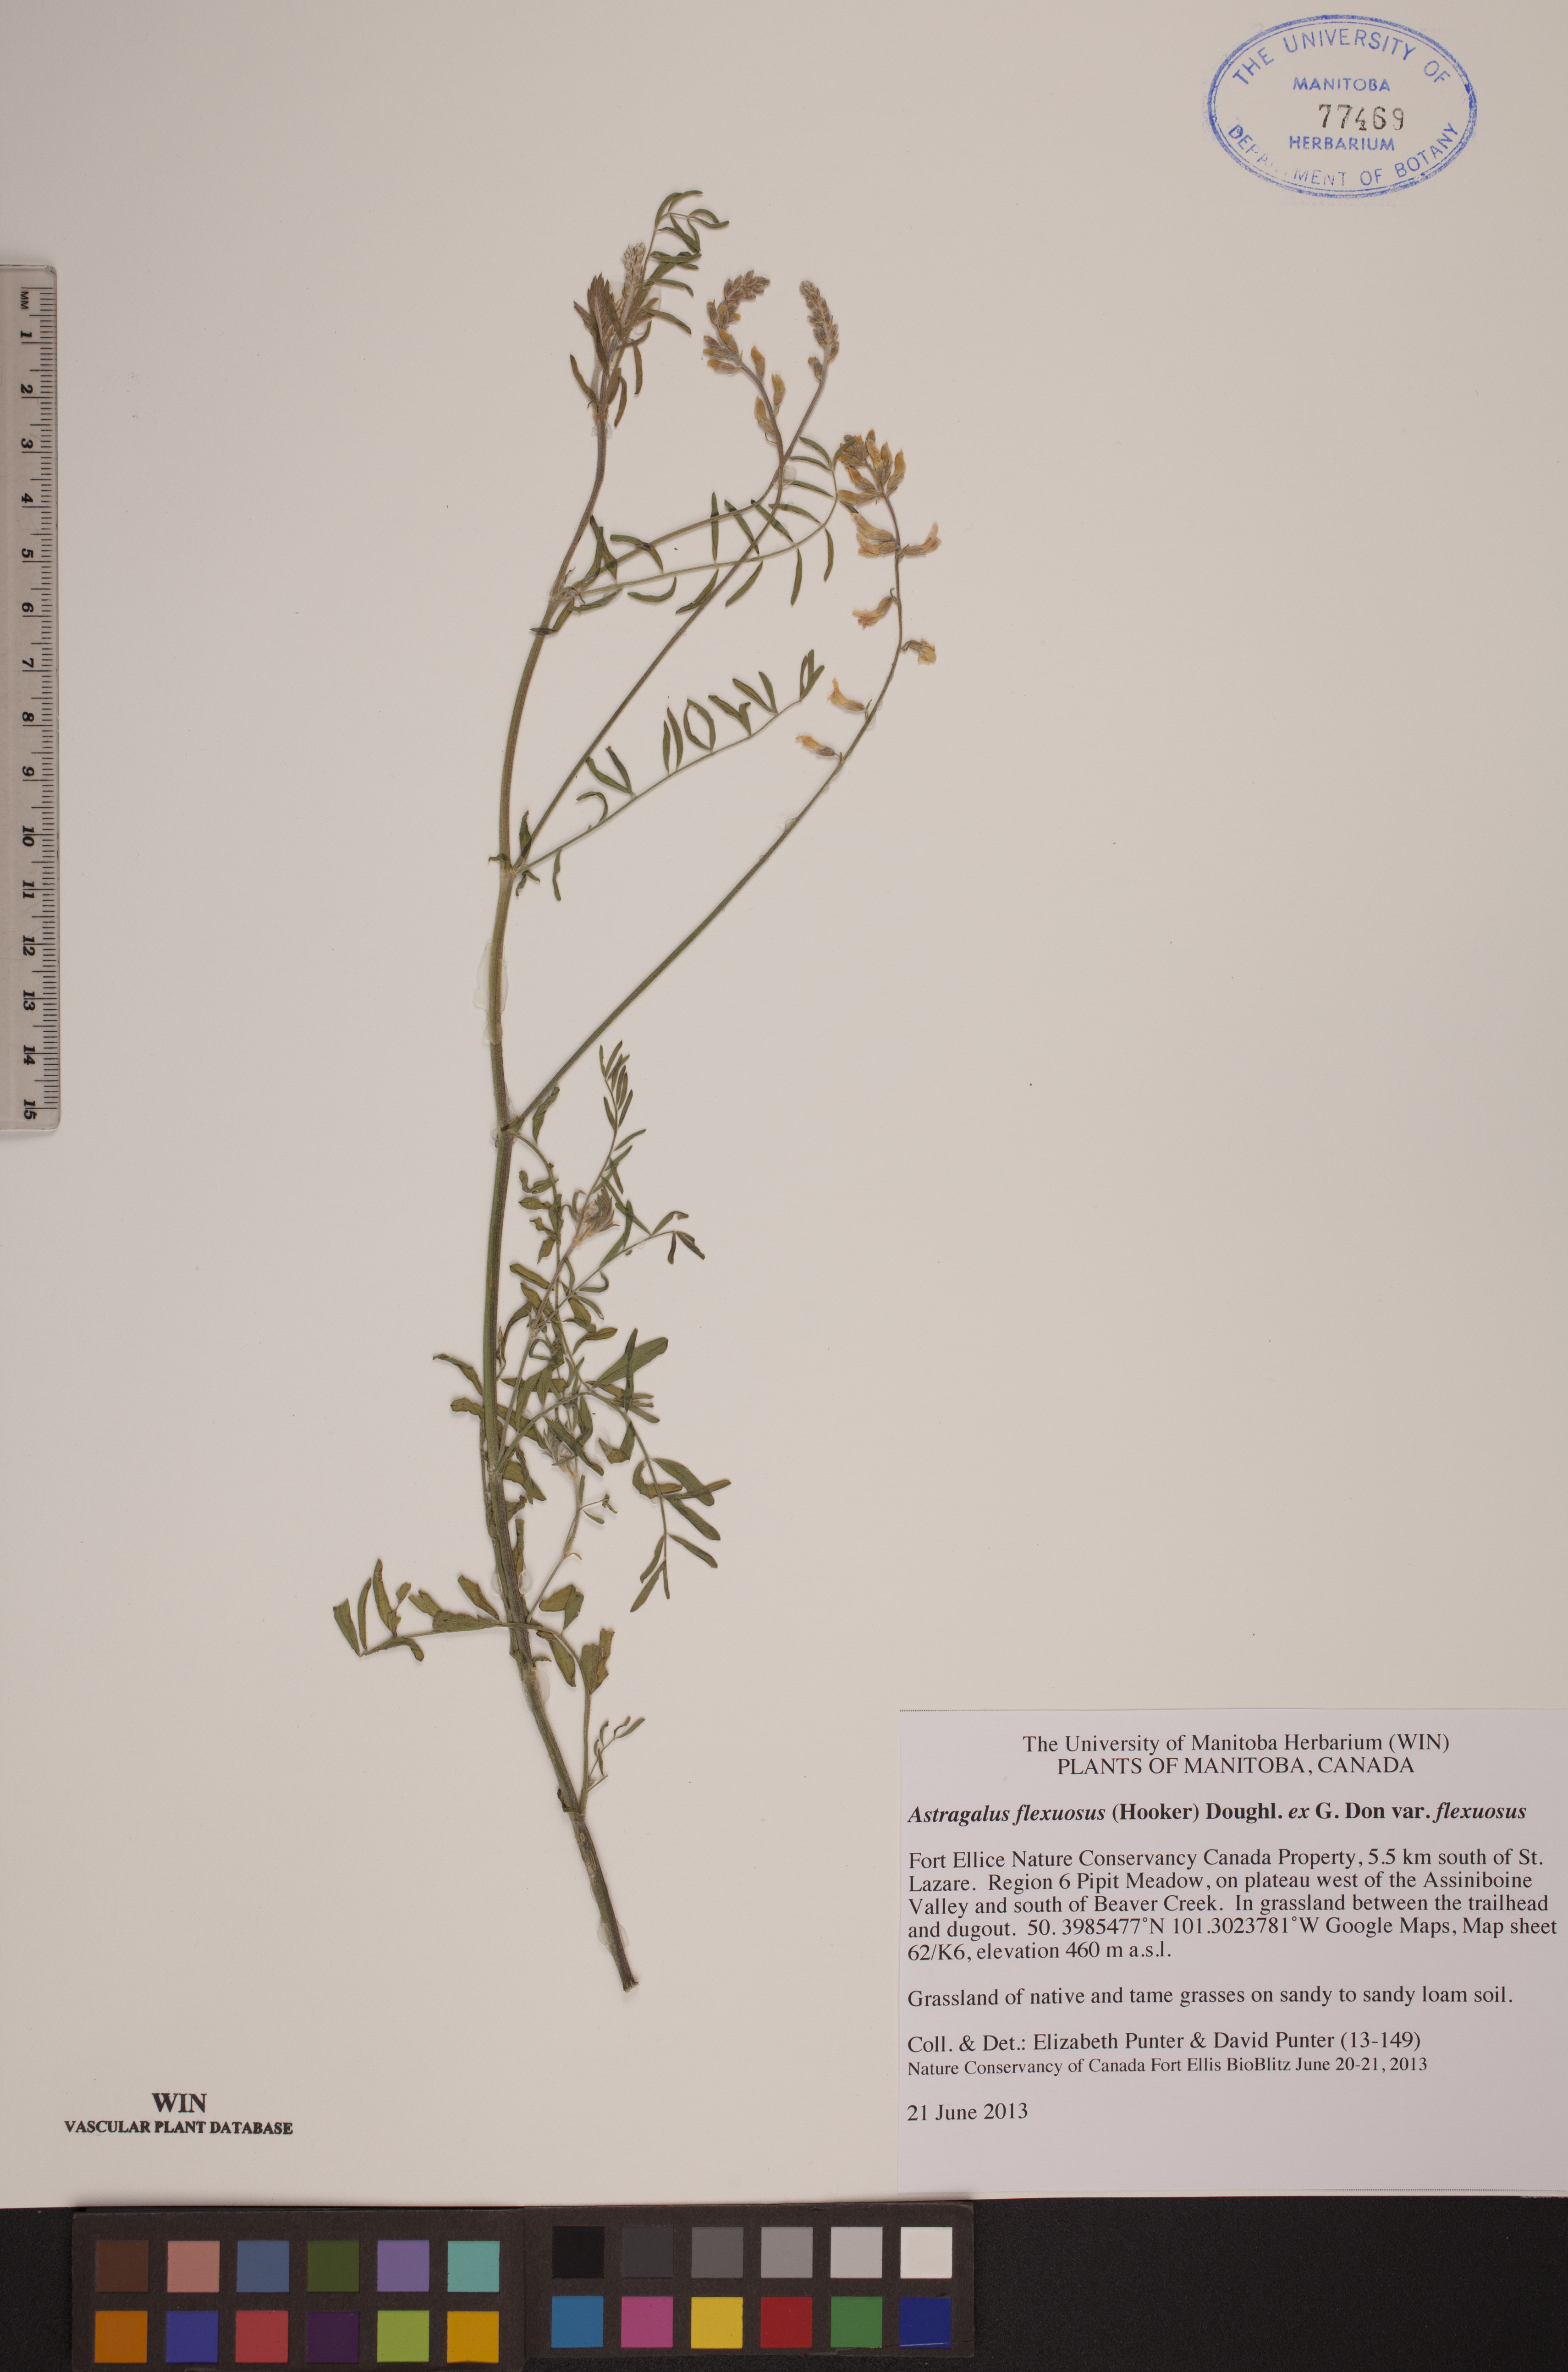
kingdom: Plantae
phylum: Tracheophyta
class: Magnoliopsida
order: Fabales
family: Fabaceae
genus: Astragalus
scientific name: Astragalus flexuosus
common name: Pliant milk-vetch
